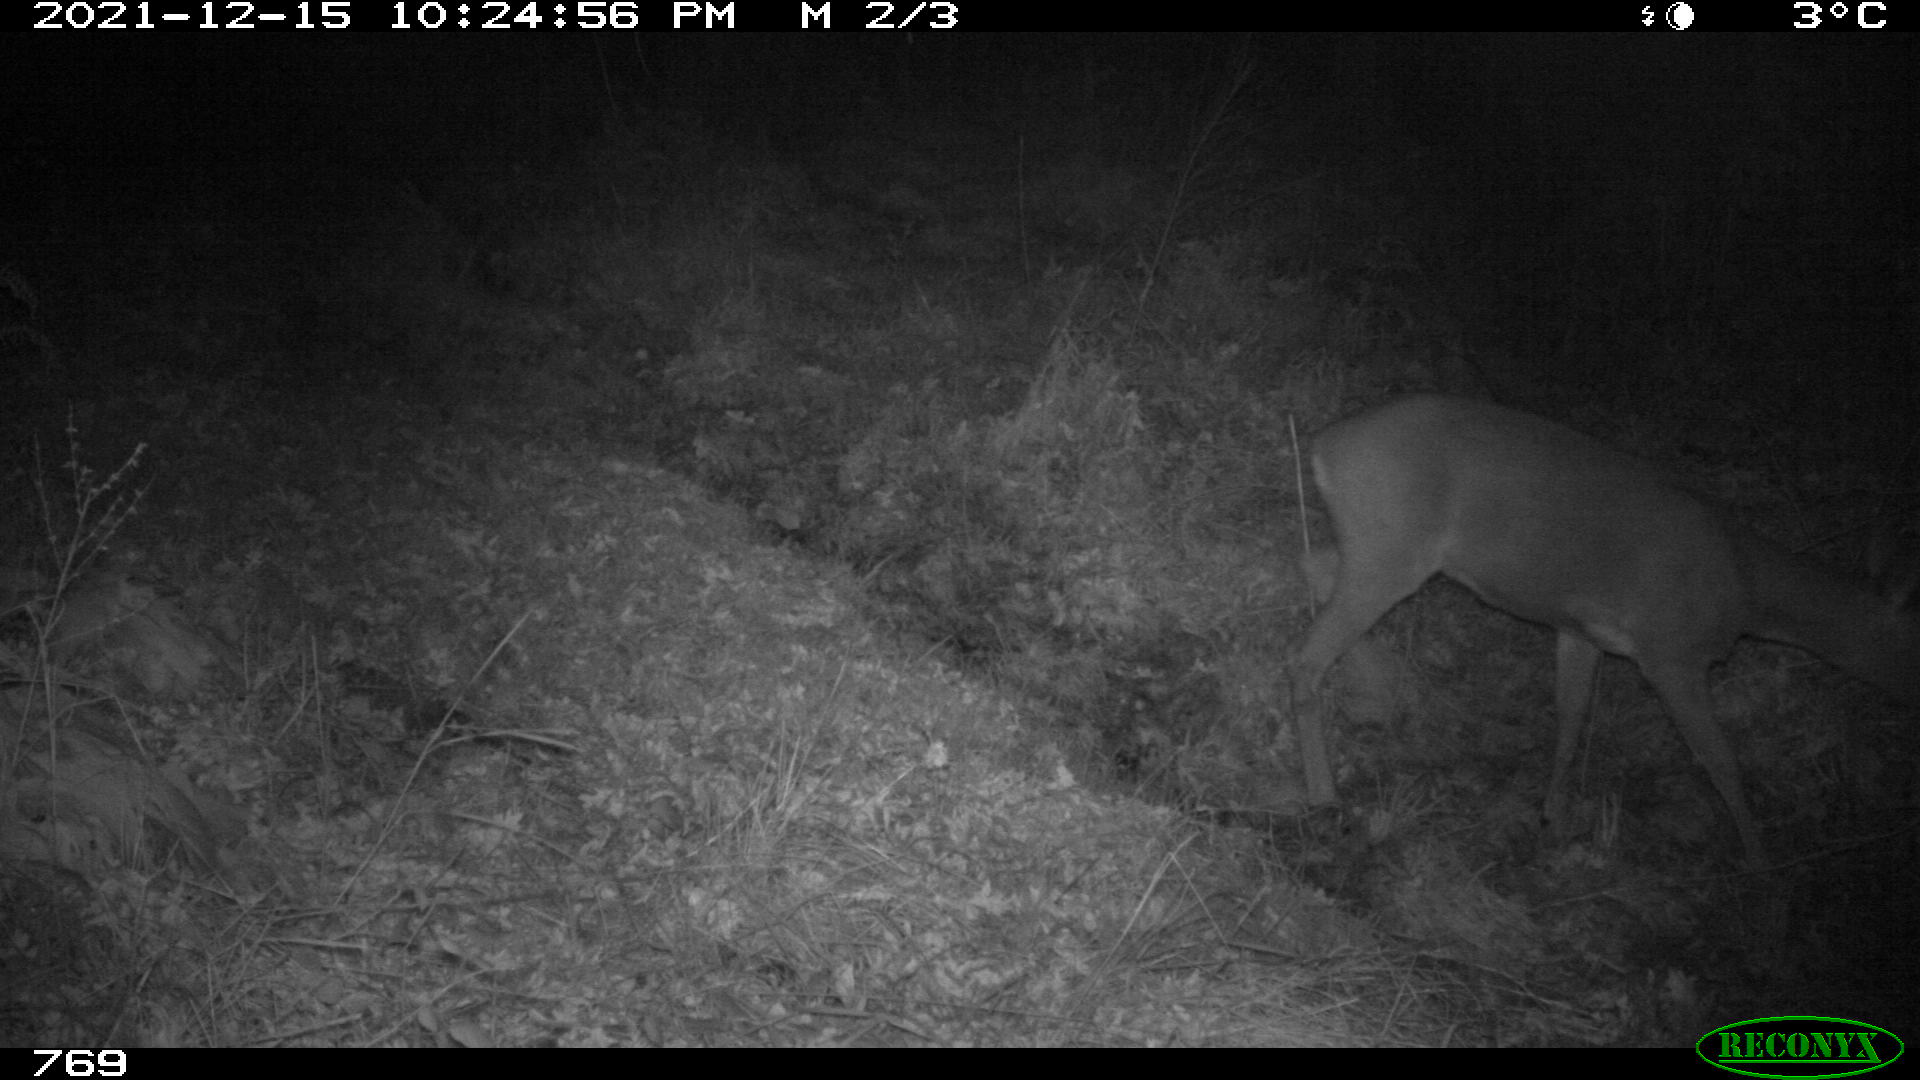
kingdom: Animalia
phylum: Chordata
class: Mammalia
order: Artiodactyla
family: Cervidae
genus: Capreolus
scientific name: Capreolus capreolus
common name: Western roe deer
